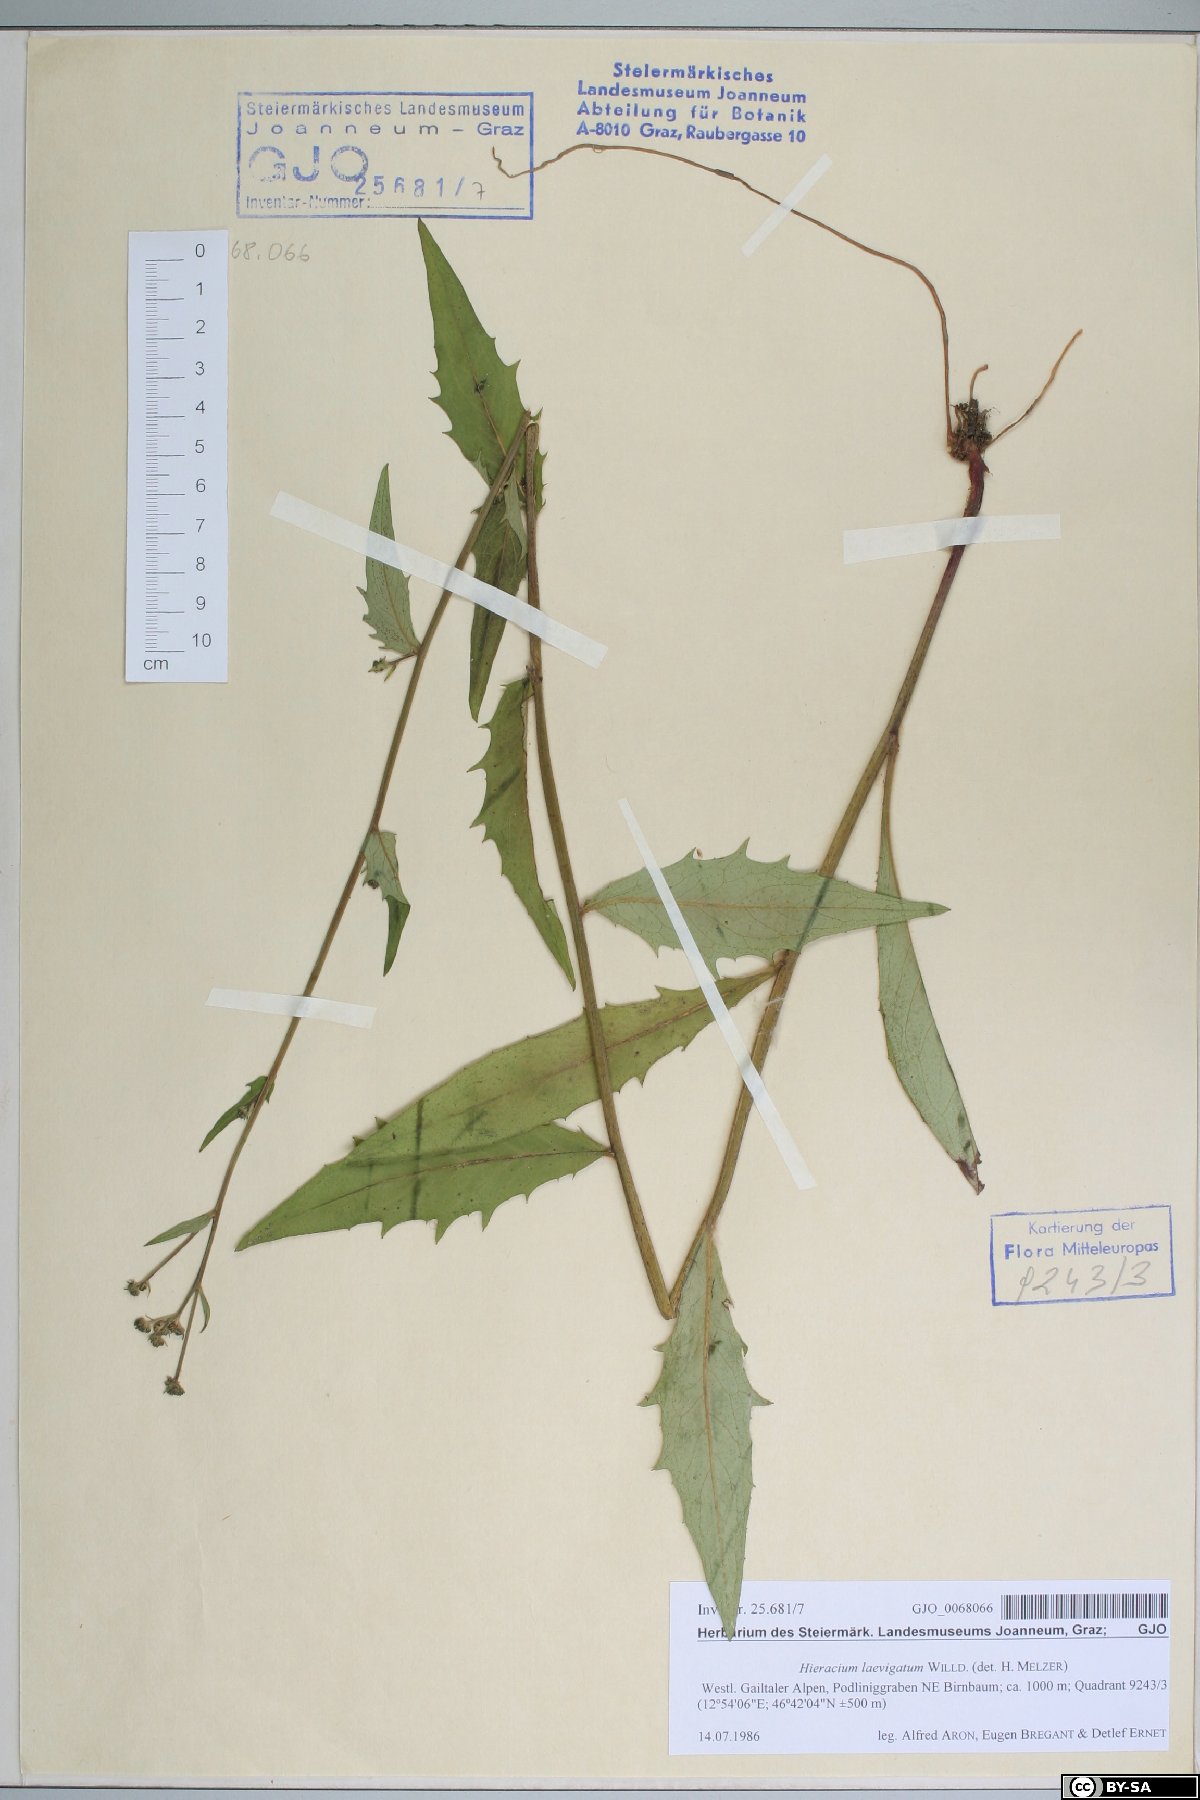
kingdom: Plantae
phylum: Tracheophyta
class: Magnoliopsida
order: Asterales
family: Asteraceae
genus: Hieracium
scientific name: Hieracium laevigatum
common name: Smooth hawkweed
